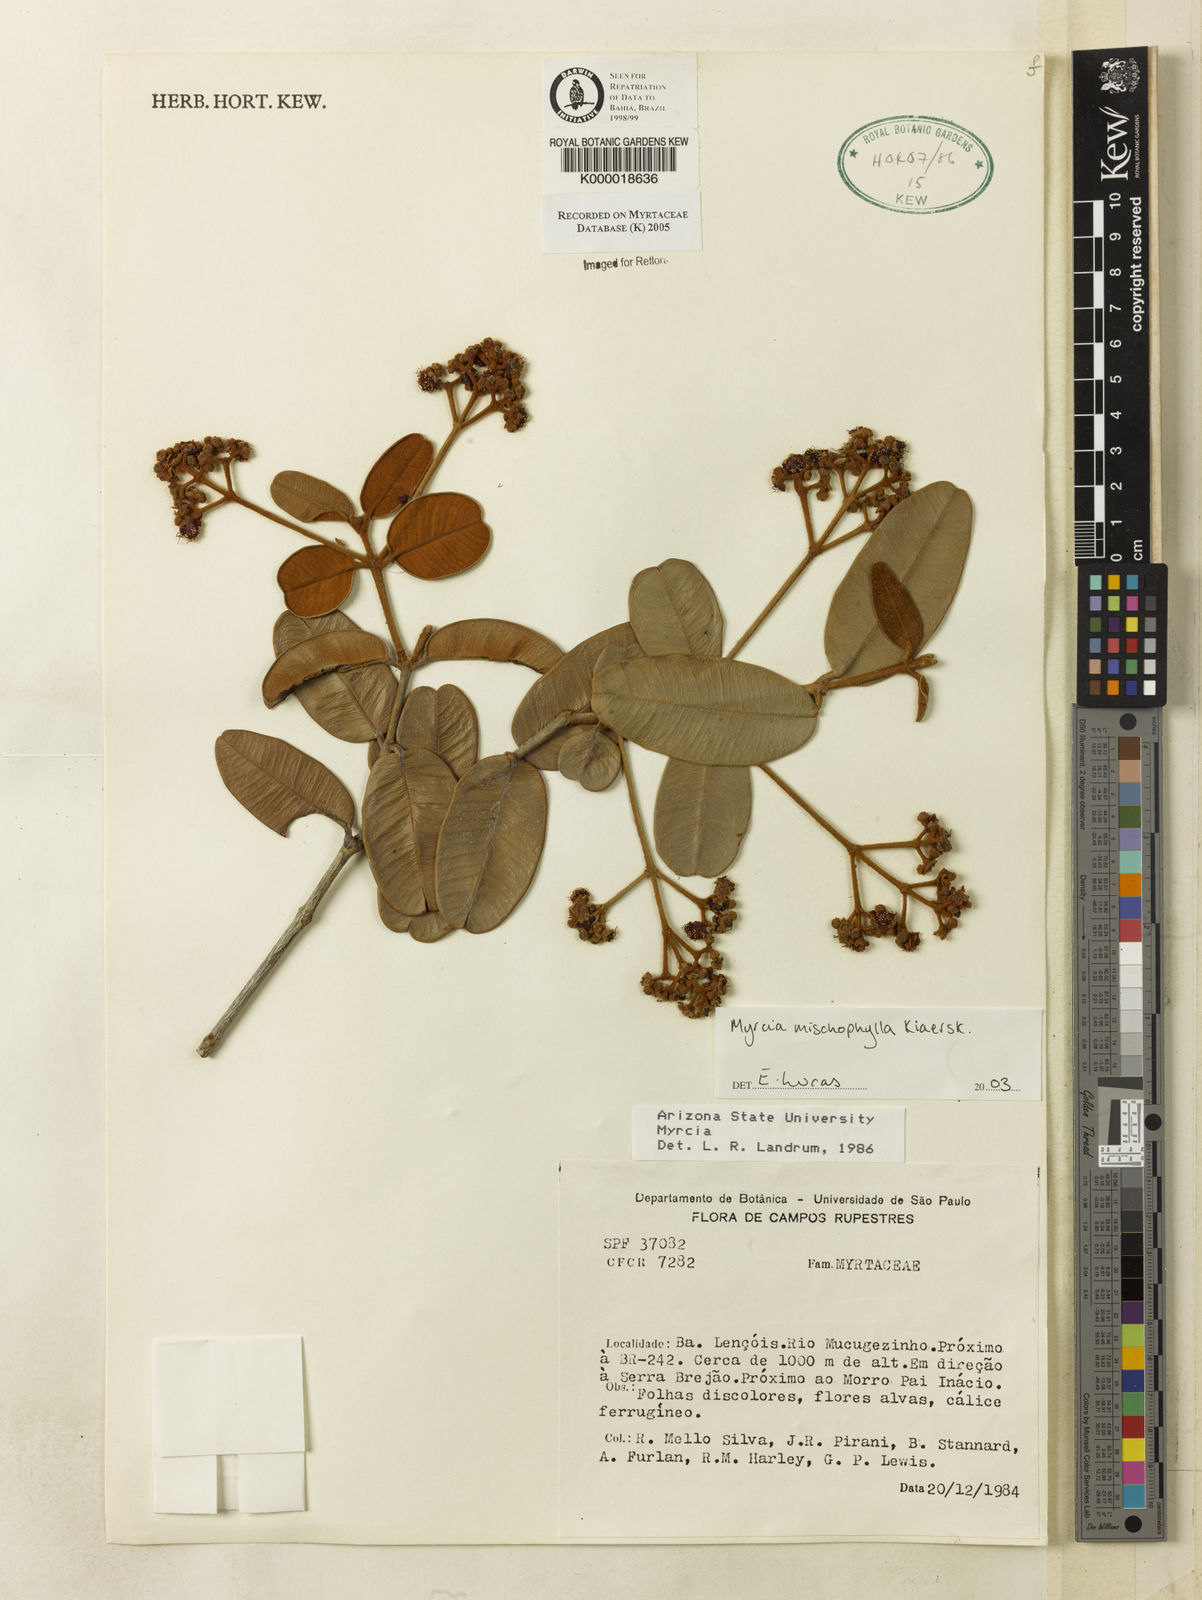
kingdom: Plantae
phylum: Tracheophyta
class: Magnoliopsida
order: Myrtales
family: Myrtaceae
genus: Myrcia
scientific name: Myrcia mischophylla
